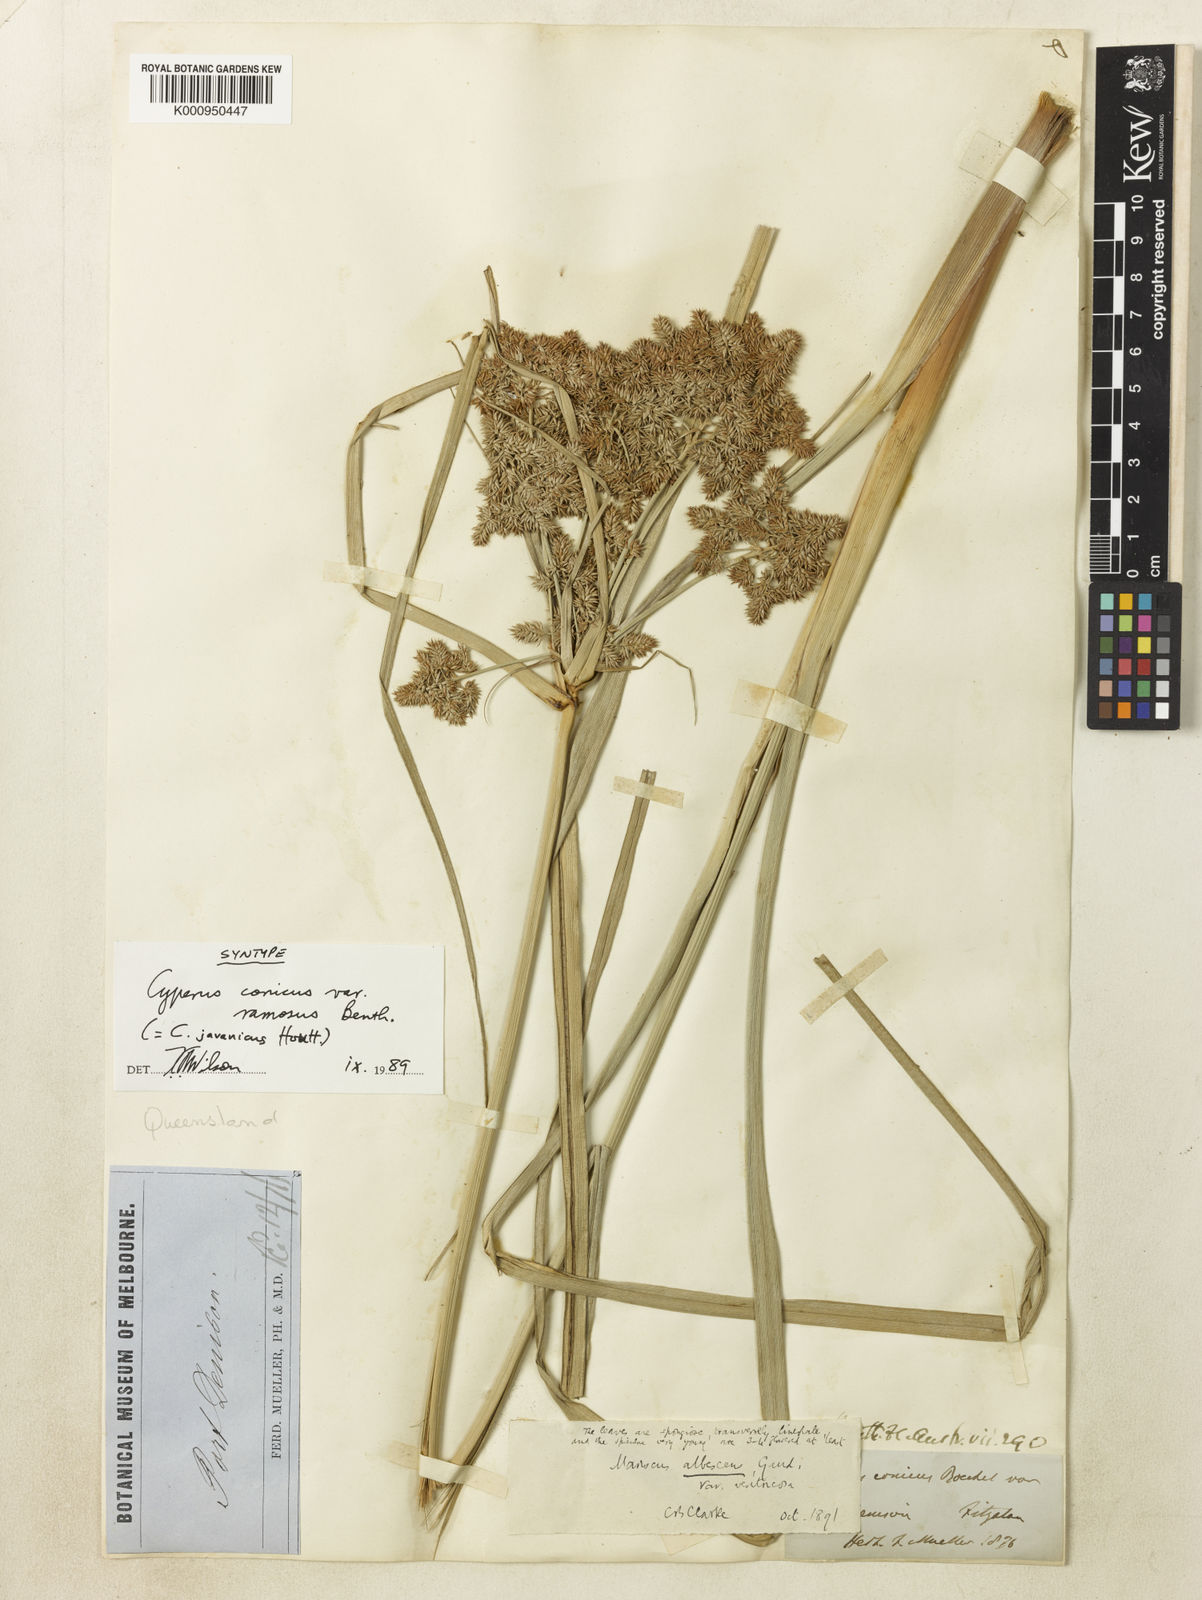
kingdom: Plantae
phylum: Tracheophyta
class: Liliopsida
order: Poales
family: Cyperaceae
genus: Cyperus
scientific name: Cyperus javanicus
